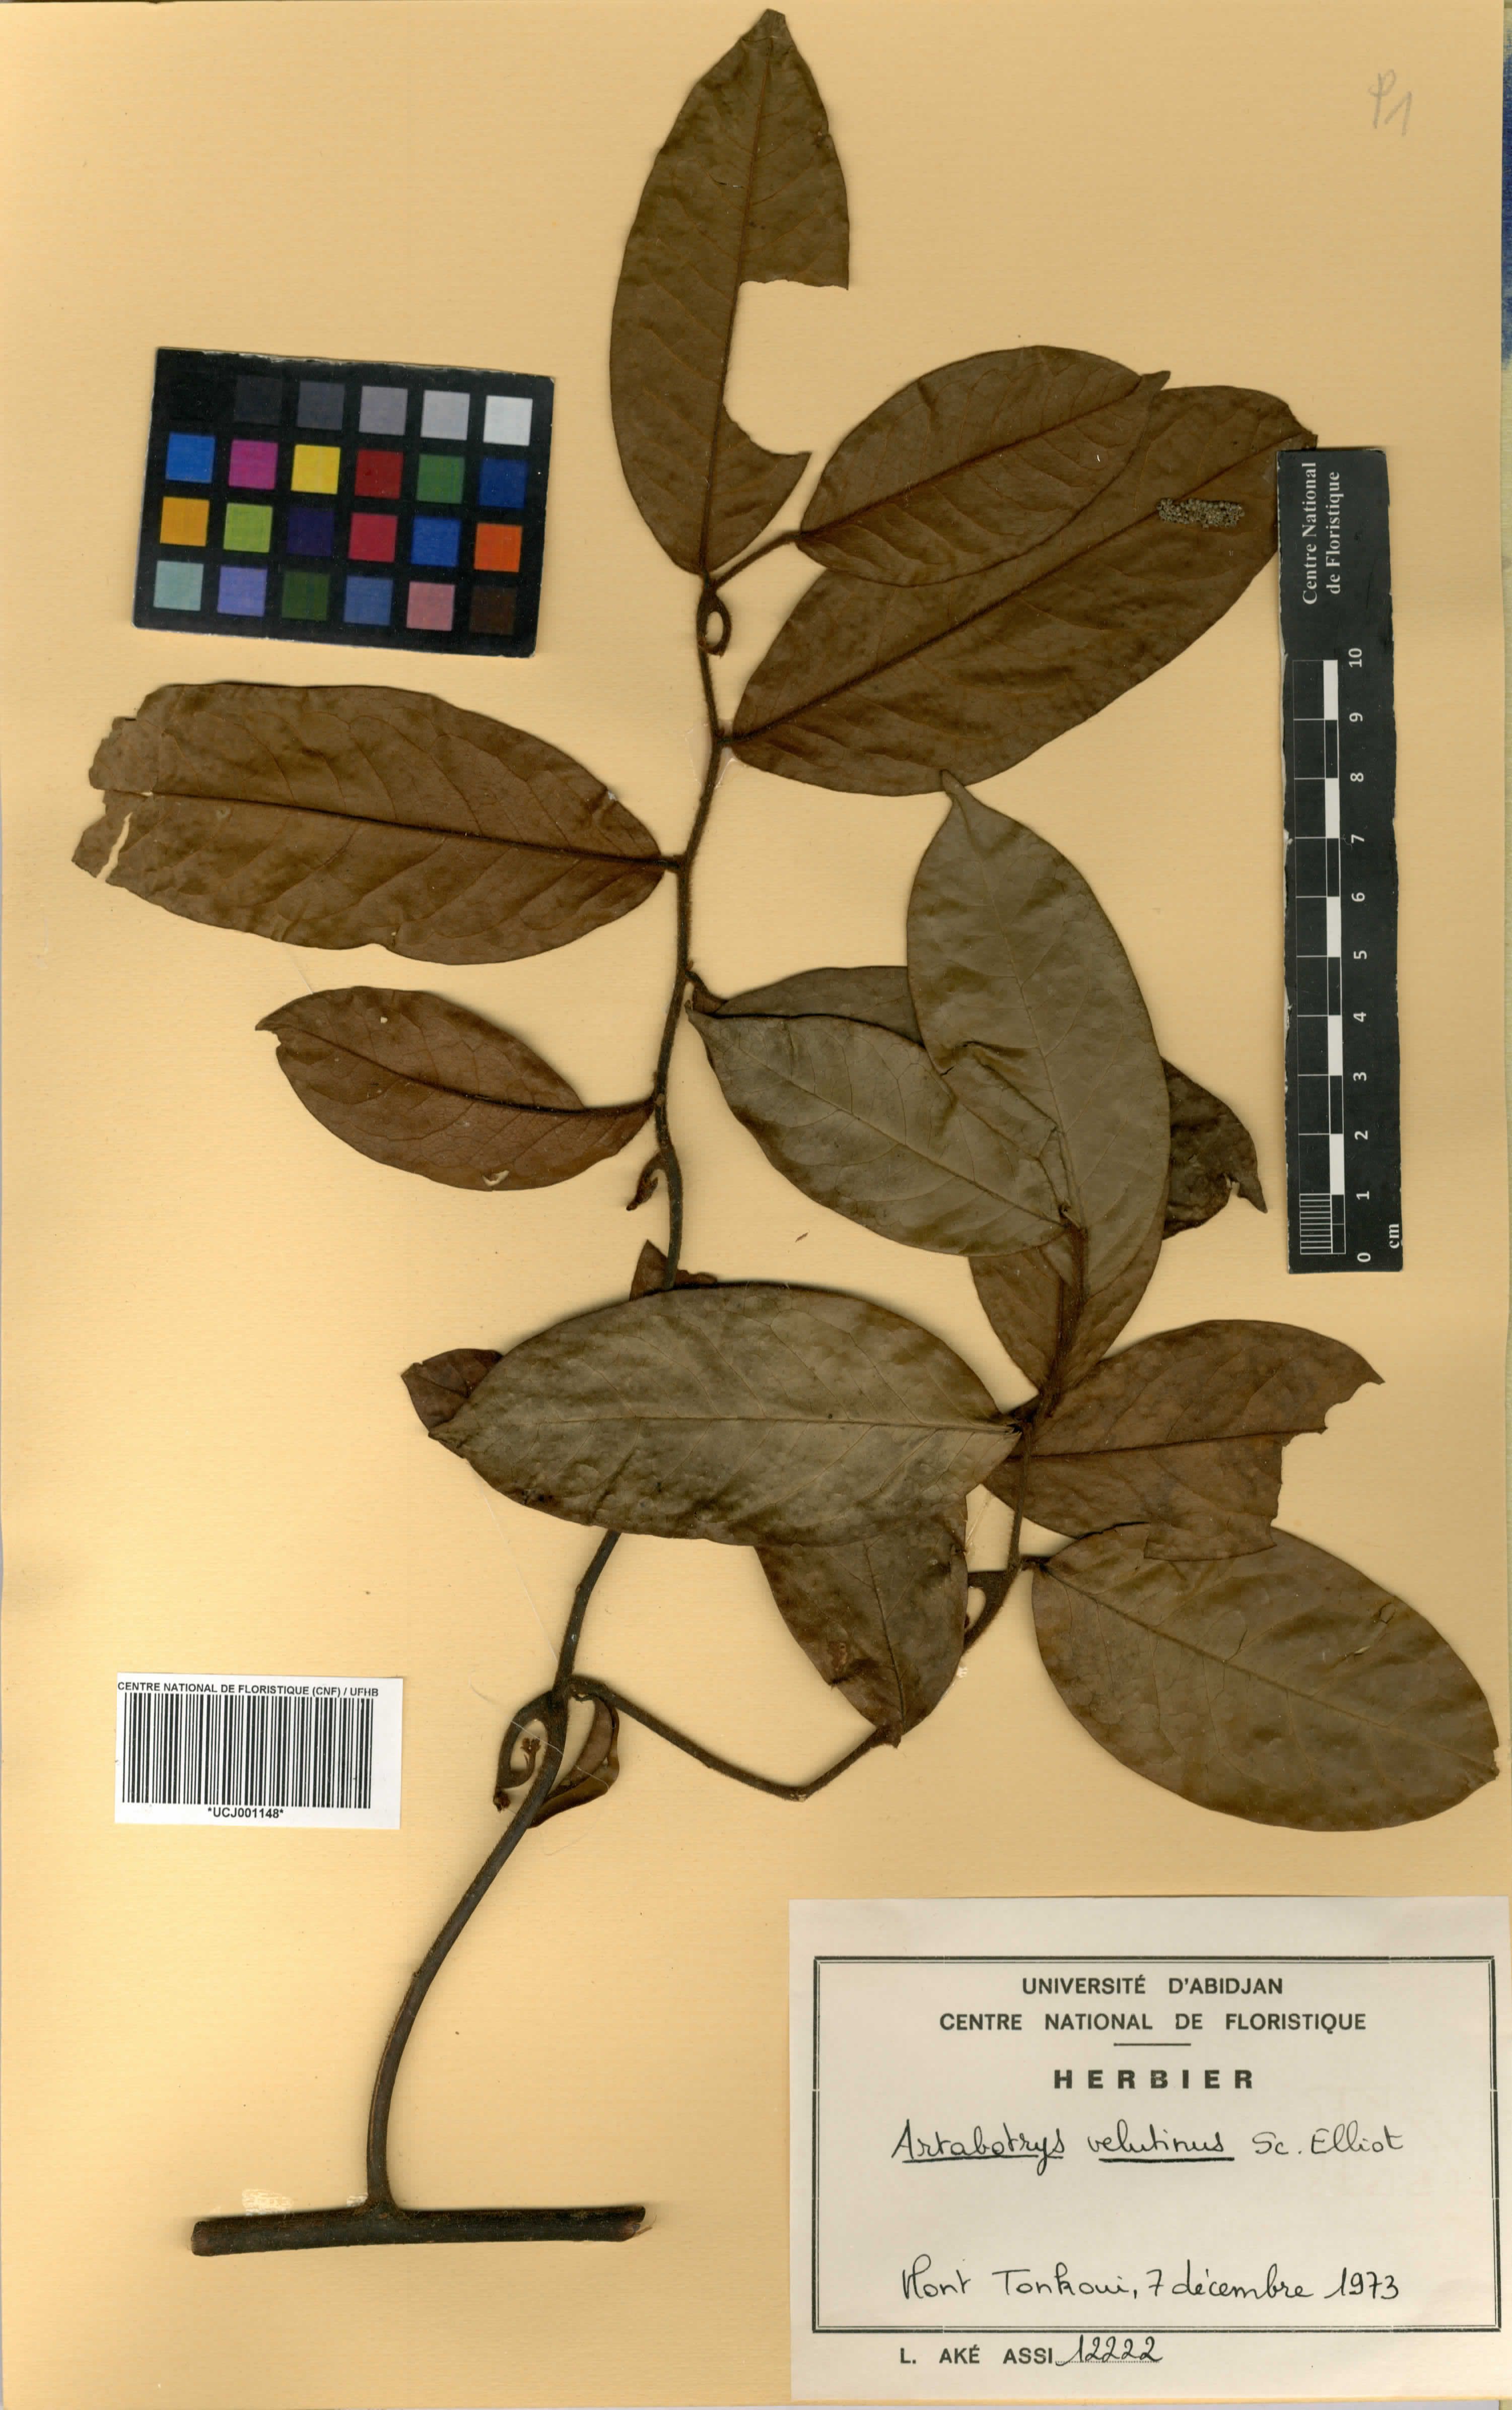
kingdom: Plantae
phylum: Tracheophyta
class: Magnoliopsida
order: Magnoliales
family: Annonaceae
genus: Artabotrys
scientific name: Artabotrys velutinus
